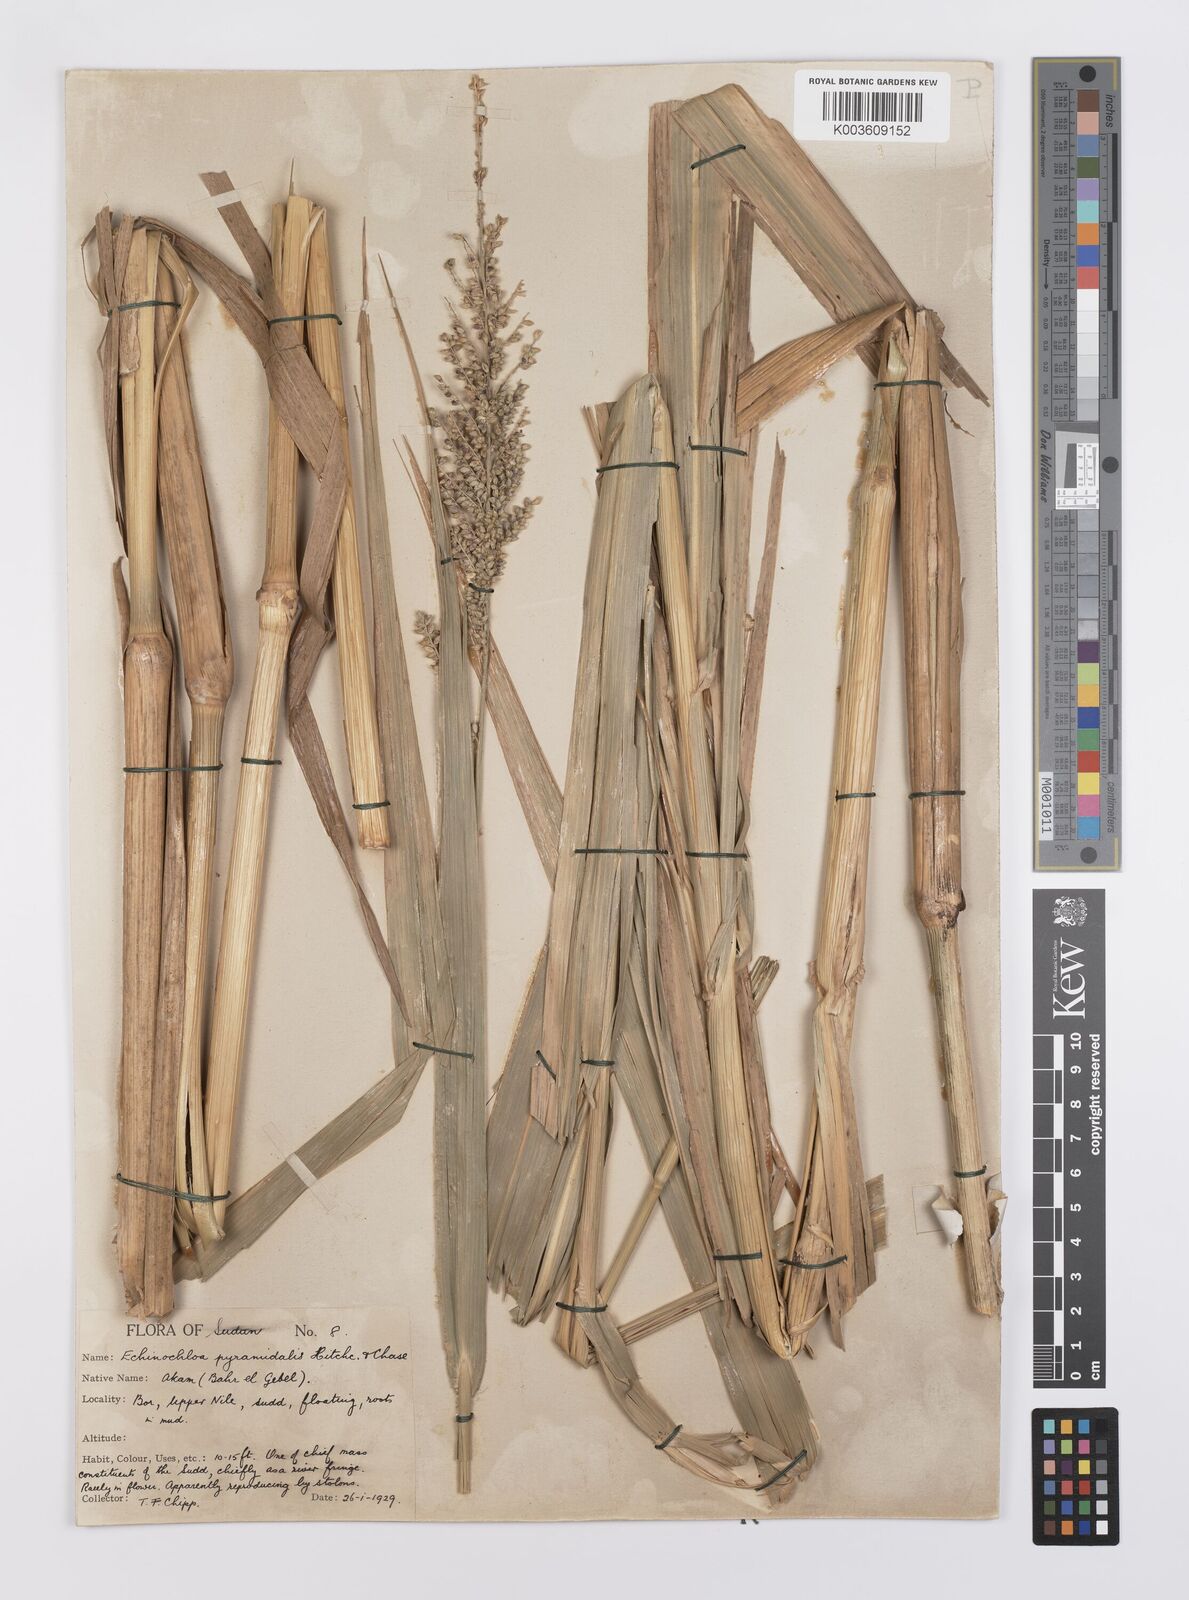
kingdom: Plantae
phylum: Tracheophyta
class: Liliopsida
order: Poales
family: Poaceae
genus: Echinochloa
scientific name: Echinochloa pyramidalis
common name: Antelope grass
